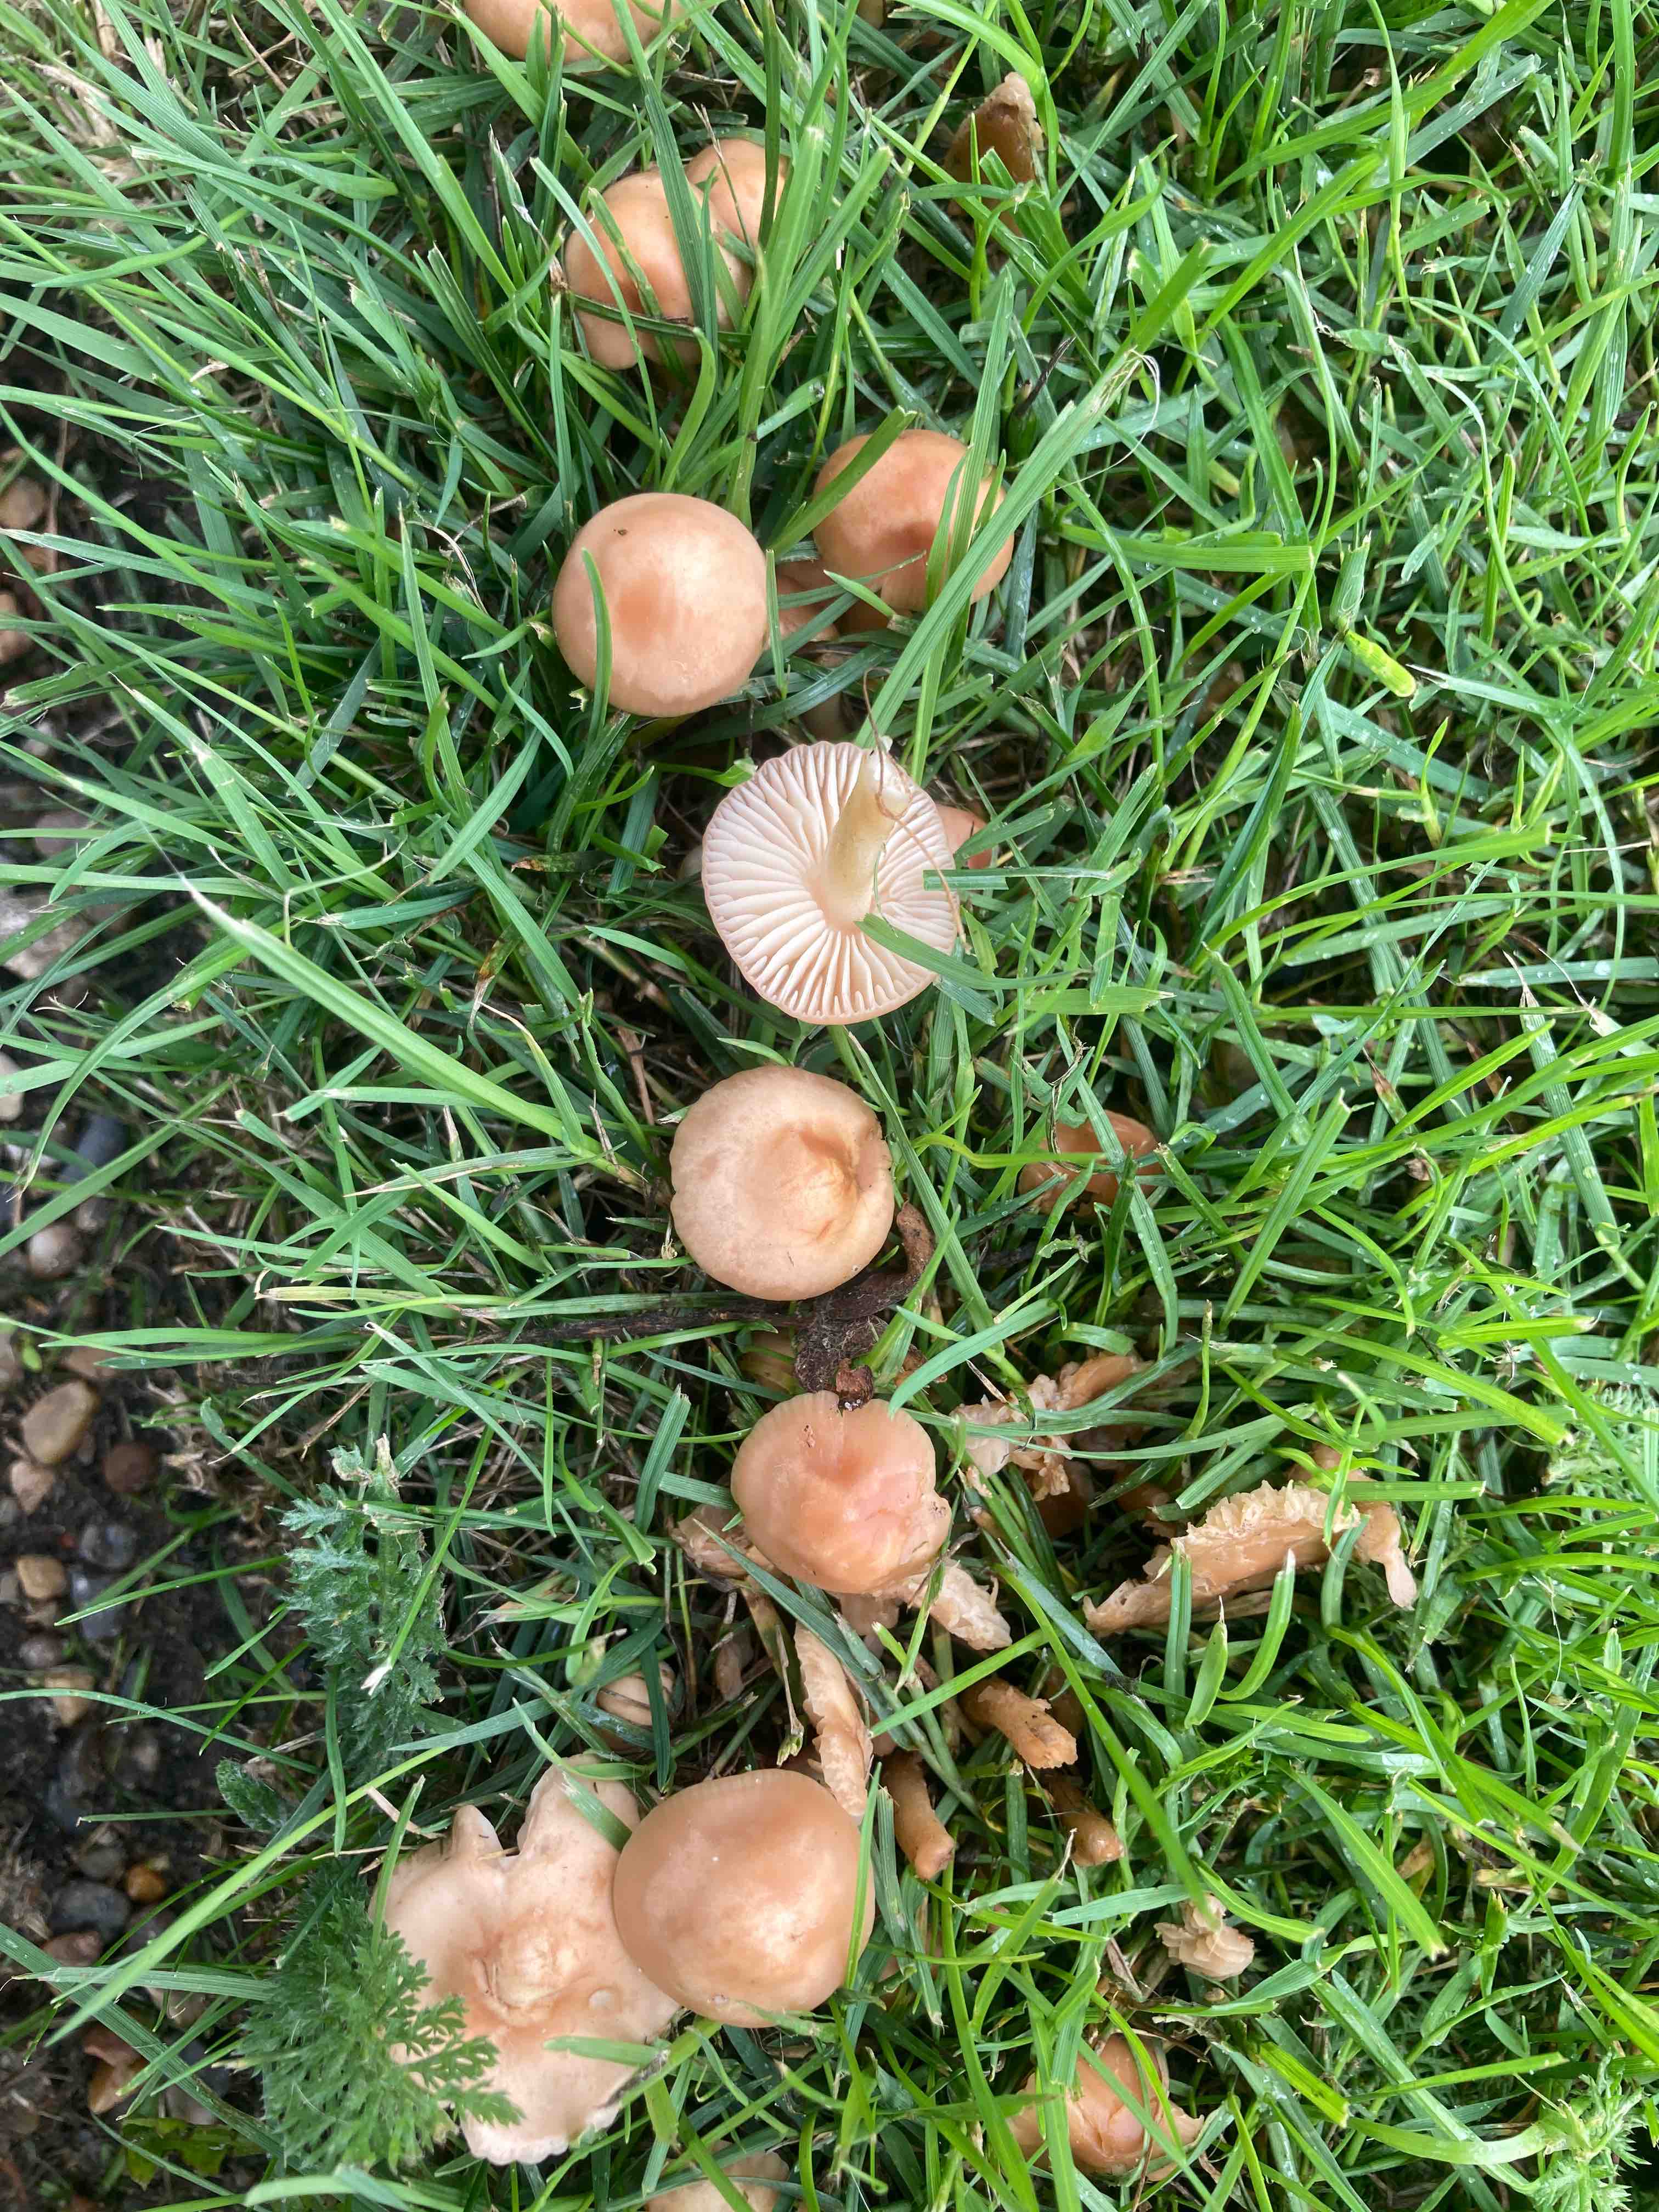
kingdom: Fungi
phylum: Basidiomycota
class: Agaricomycetes
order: Agaricales
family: Marasmiaceae
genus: Marasmius
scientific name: Marasmius oreades
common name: elledans-bruskhat
